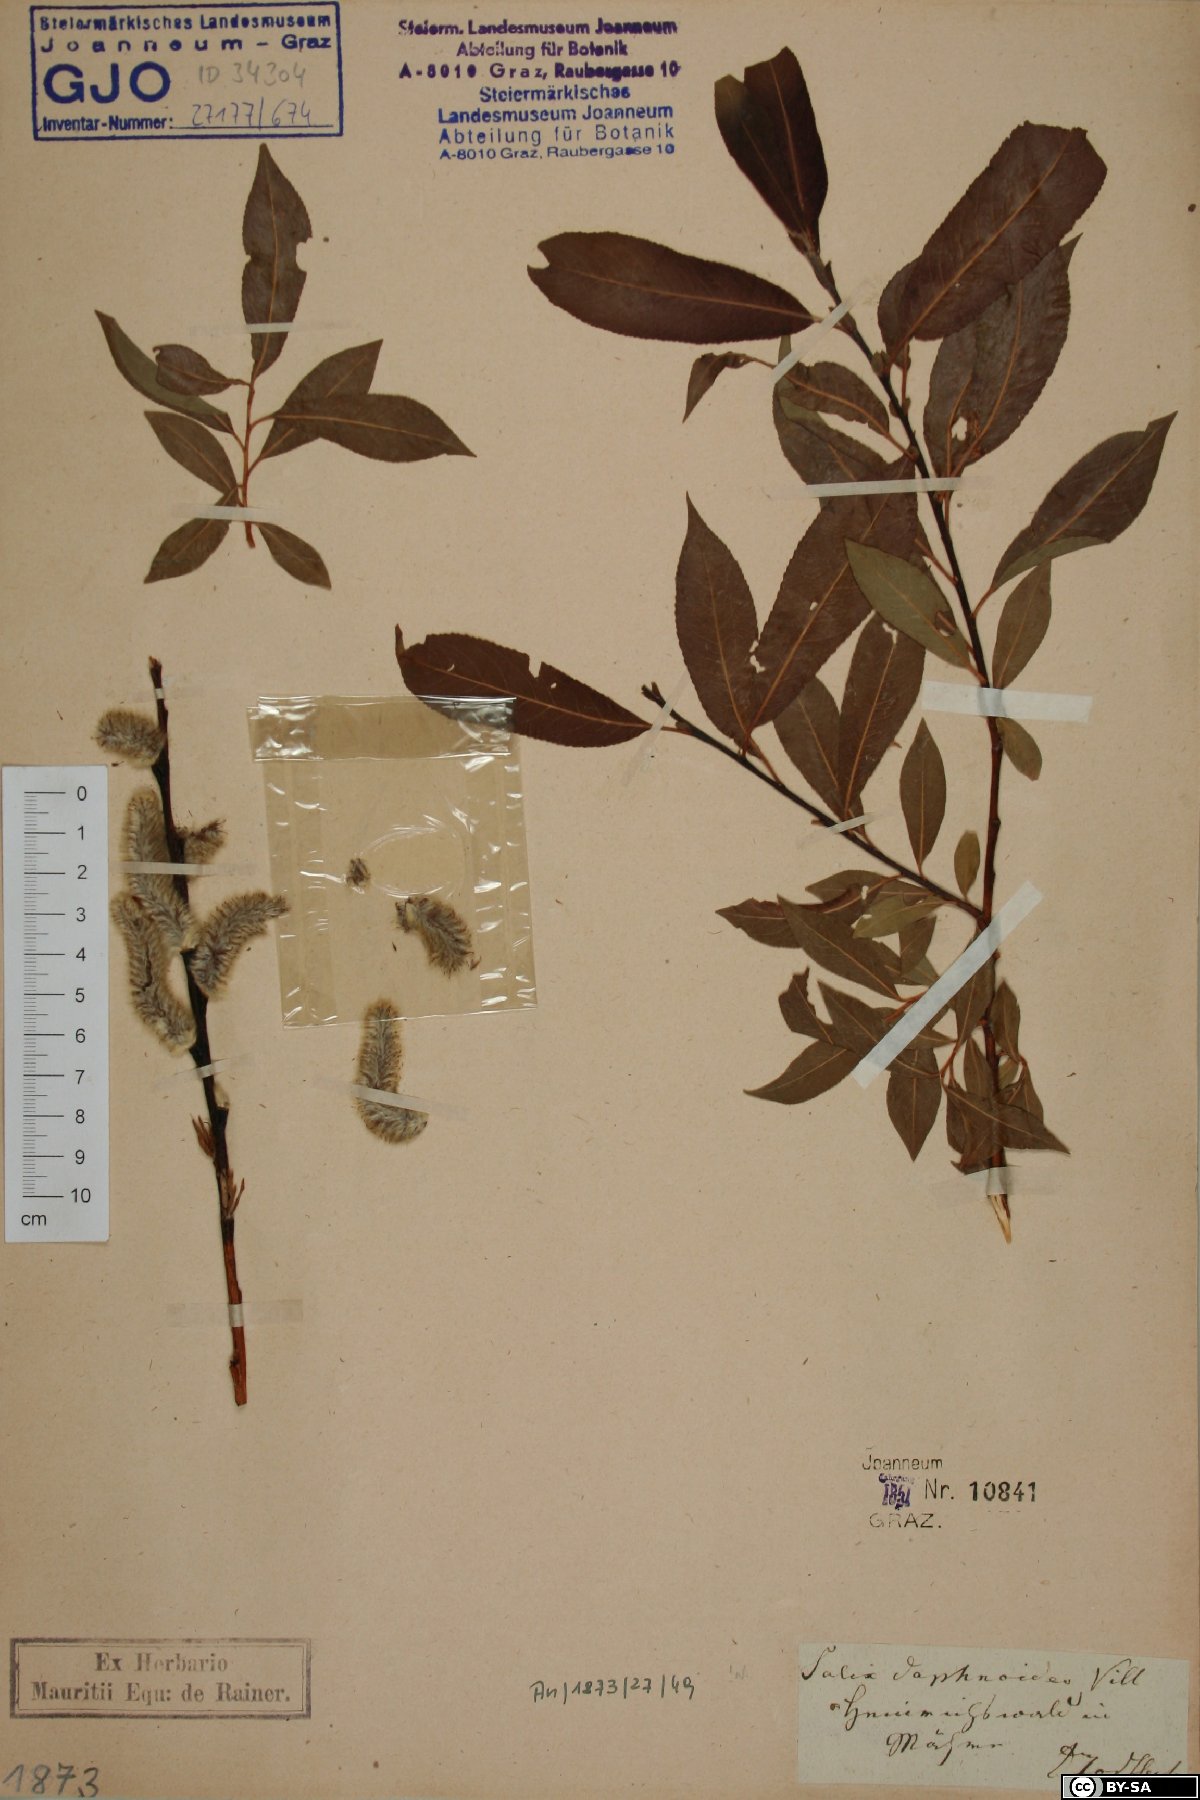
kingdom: Plantae
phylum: Tracheophyta
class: Magnoliopsida
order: Malpighiales
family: Salicaceae
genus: Salix
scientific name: Salix daphnoides
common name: European violet-willow
